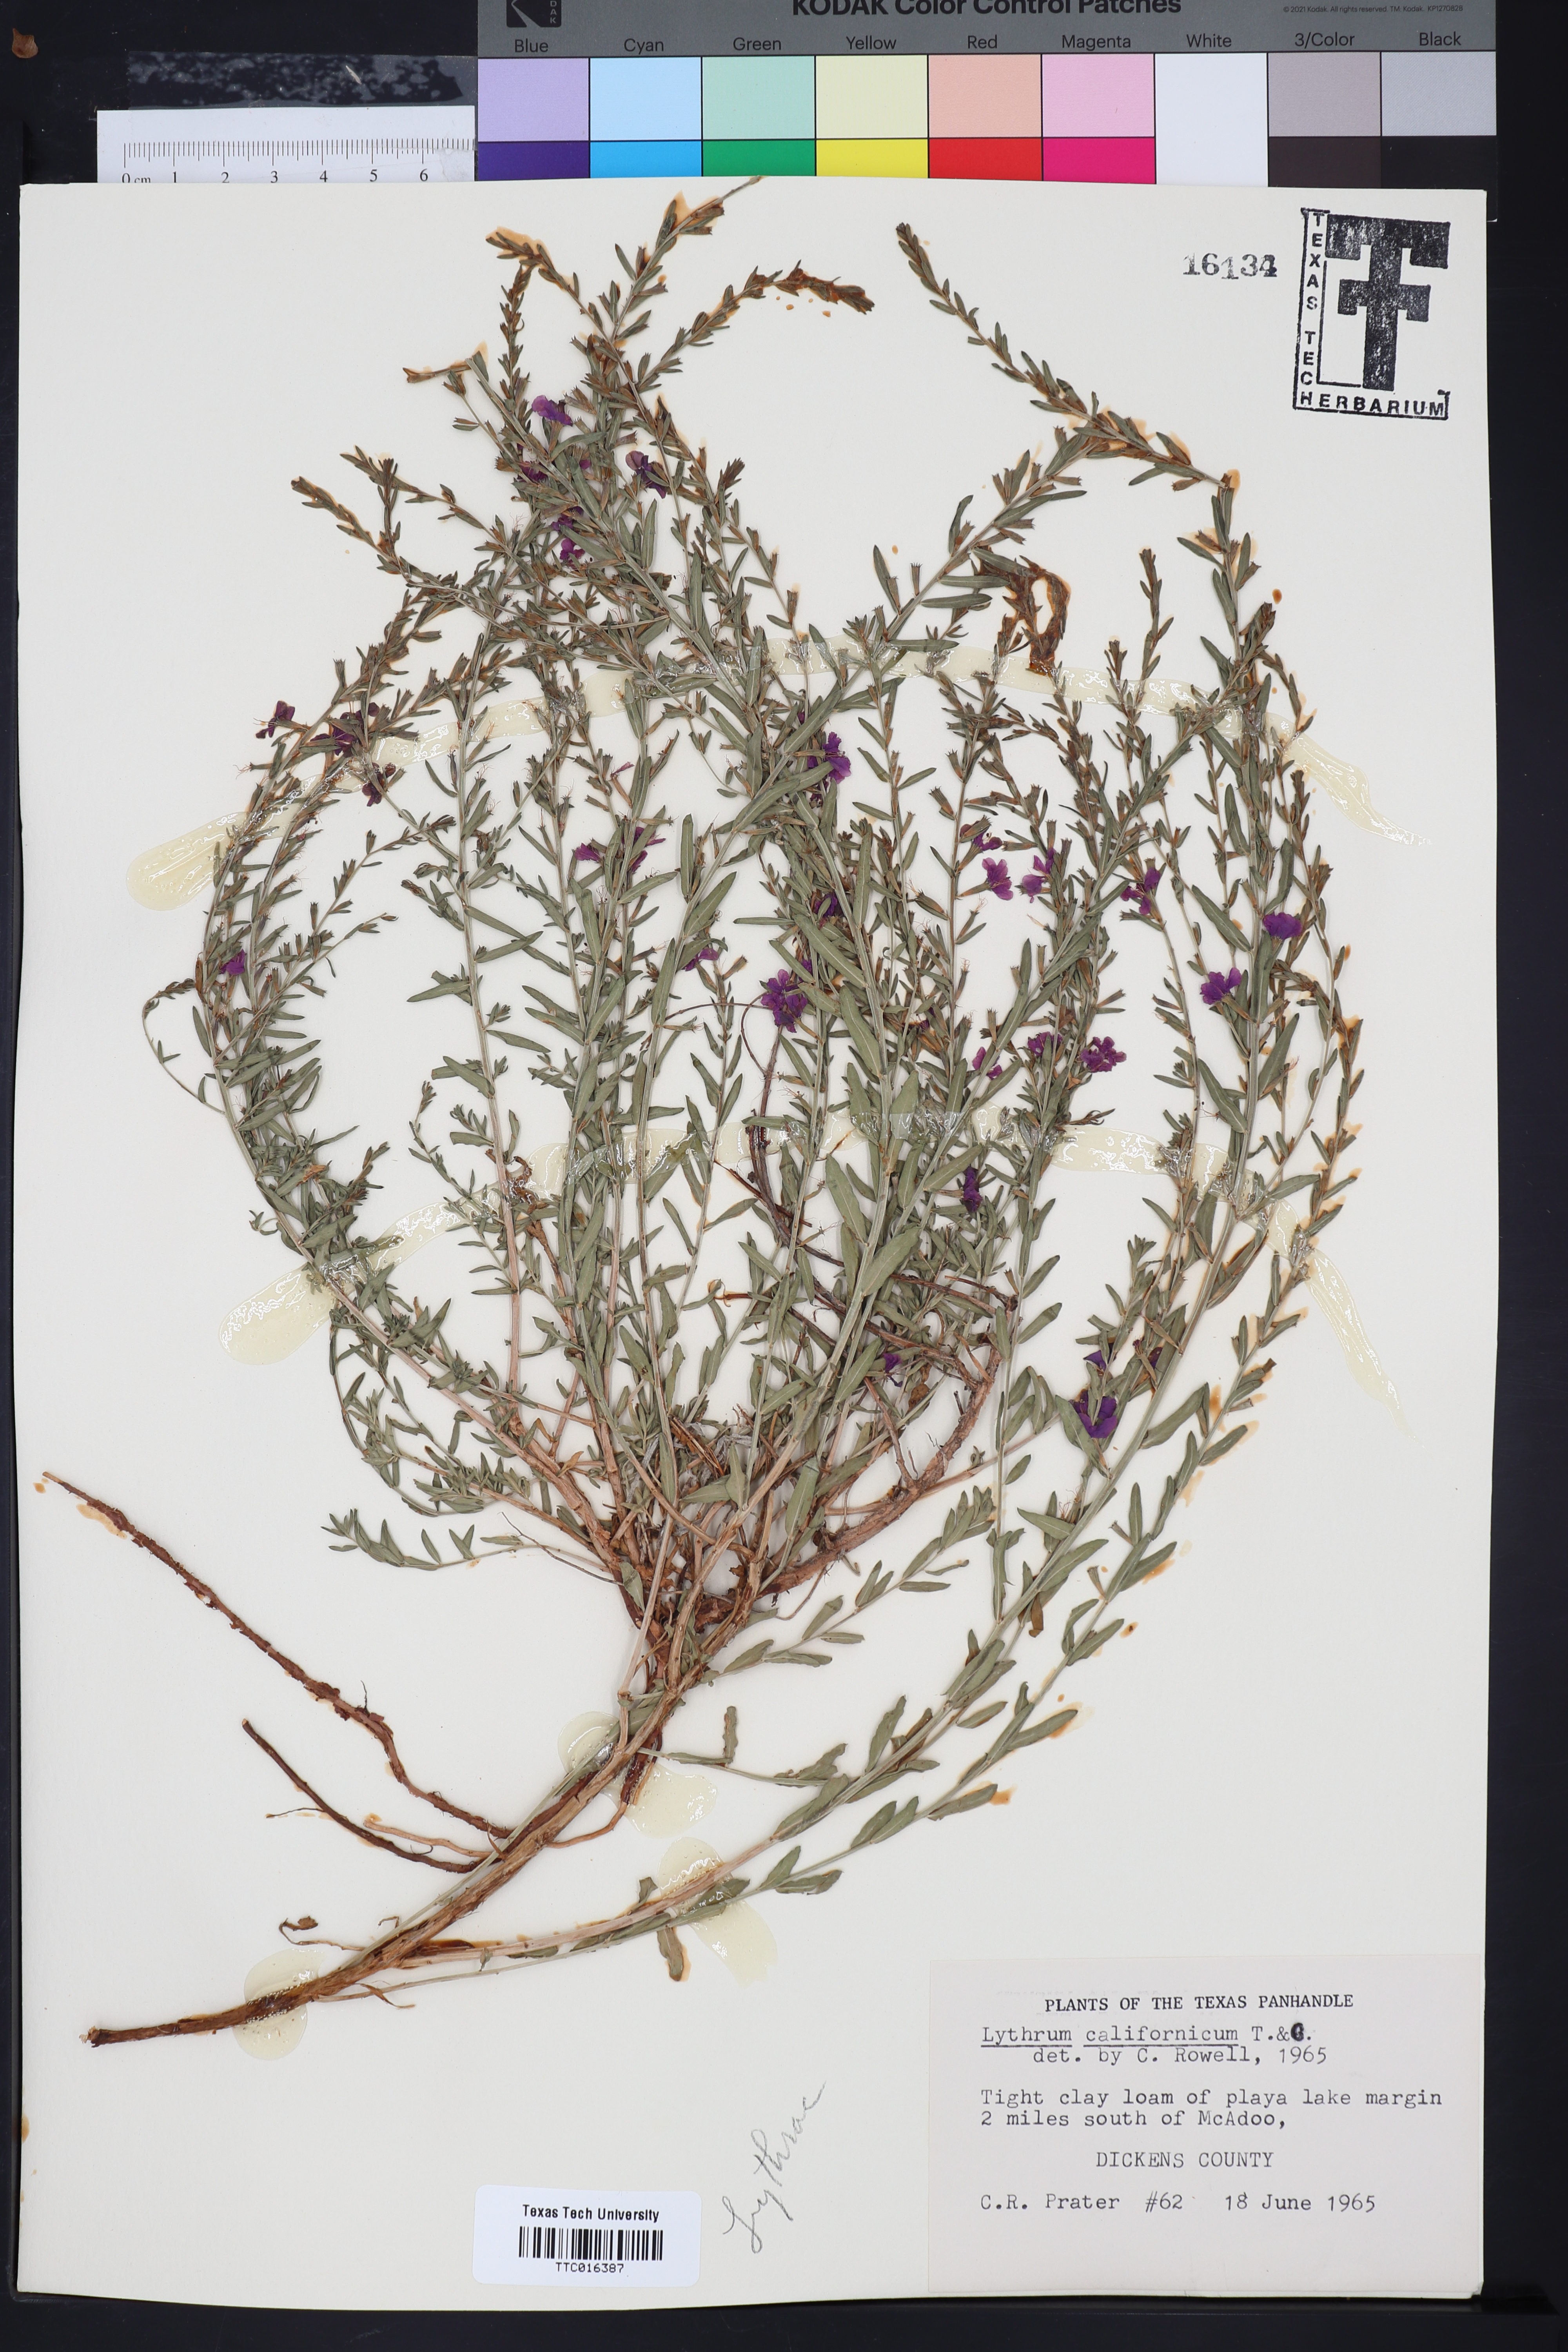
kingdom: Plantae
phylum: Tracheophyta
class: Magnoliopsida
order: Myrtales
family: Lythraceae
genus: Lythrum
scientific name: Lythrum californicum
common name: California loosestrife
